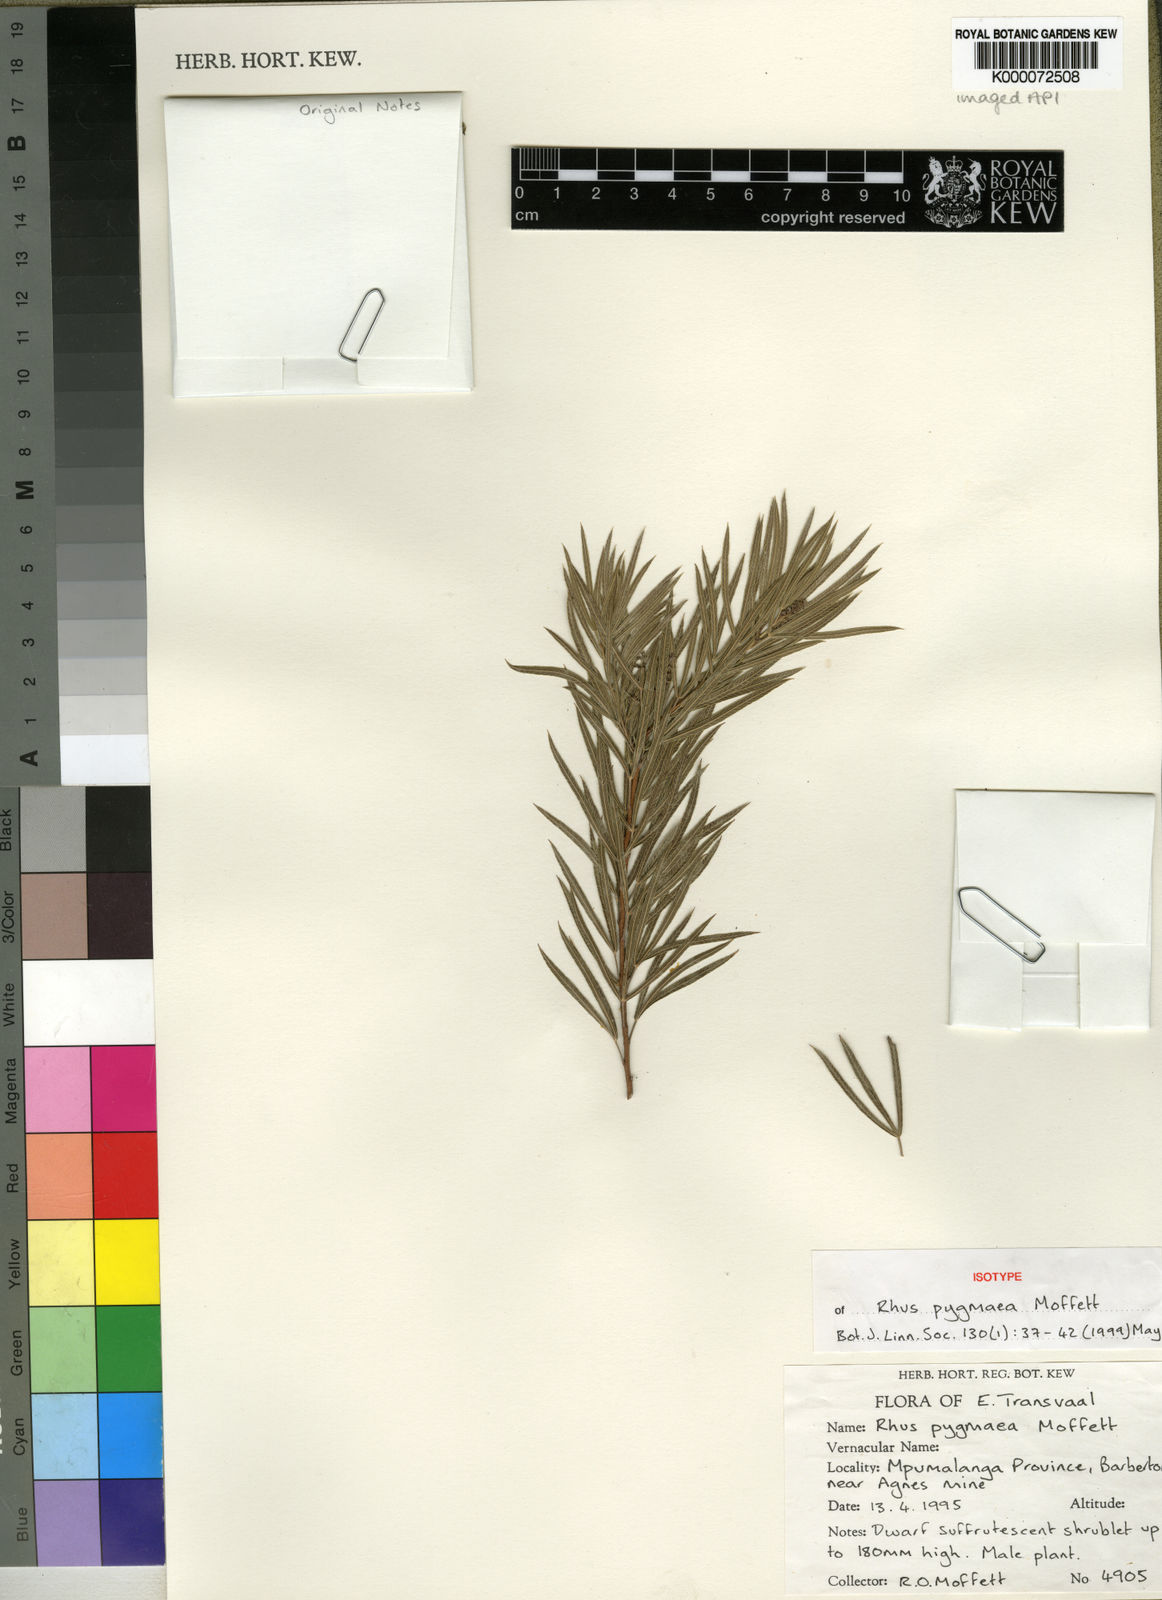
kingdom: Plantae
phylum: Tracheophyta
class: Magnoliopsida
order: Sapindales
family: Anacardiaceae
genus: Searsia
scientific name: Searsia pygmaea
